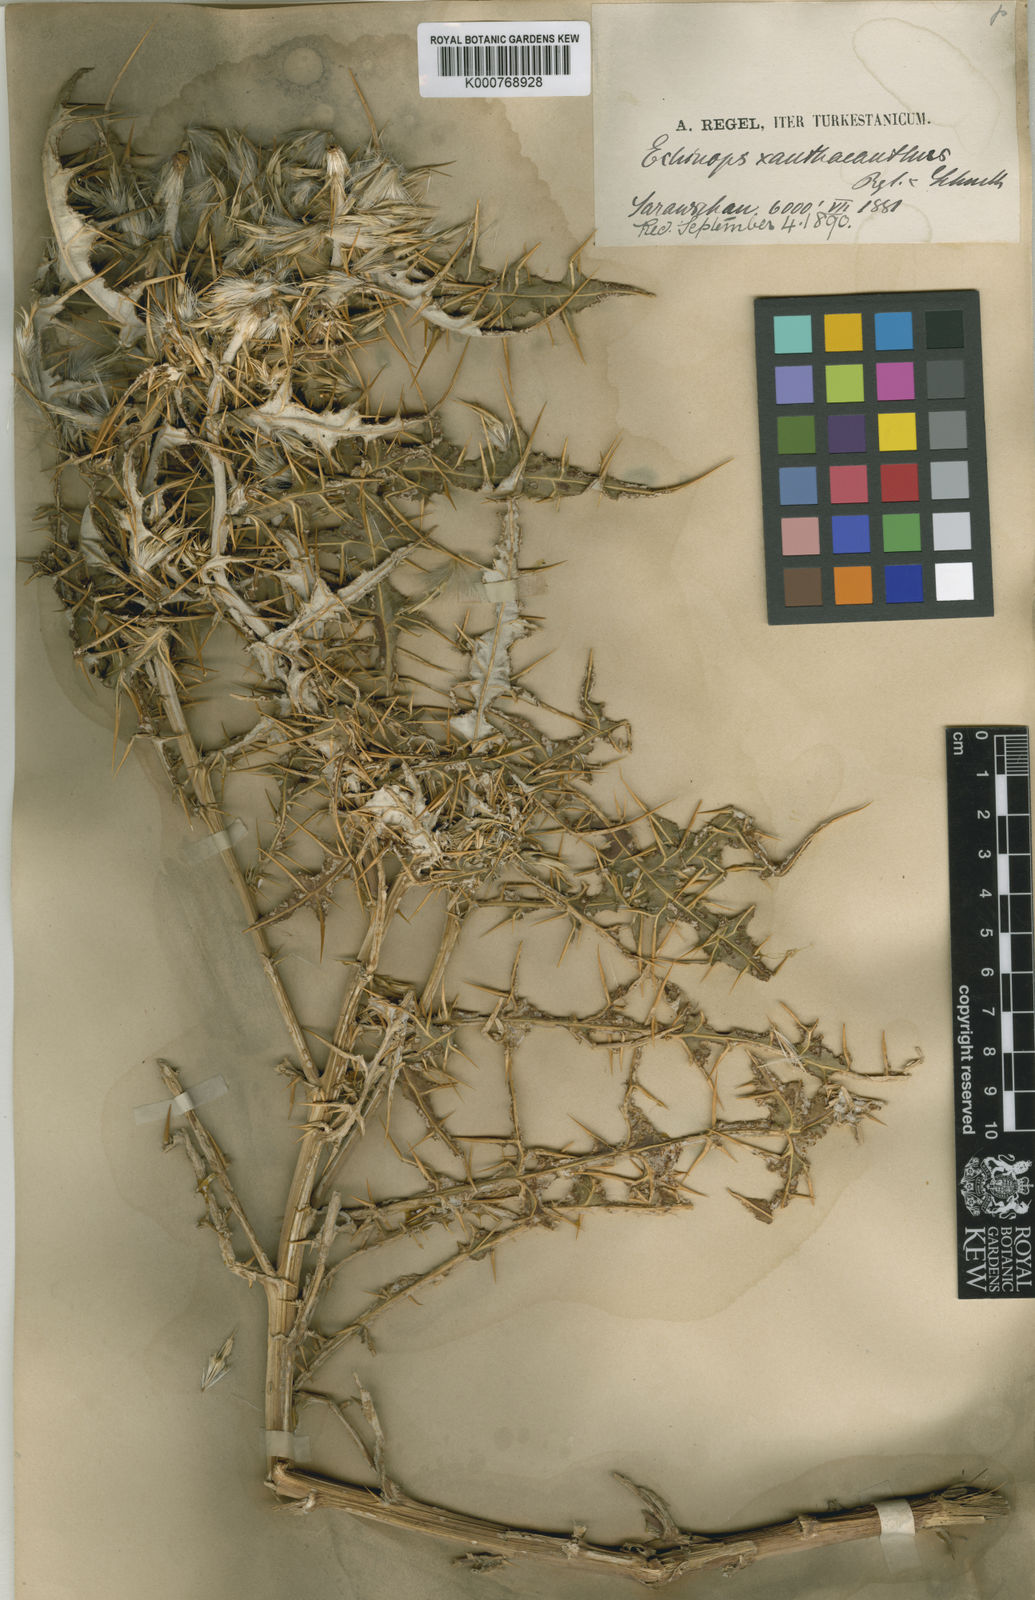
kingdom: Plantae
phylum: Tracheophyta
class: Magnoliopsida
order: Asterales
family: Asteraceae
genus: Echinops
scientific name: Echinops xanthacanthus
